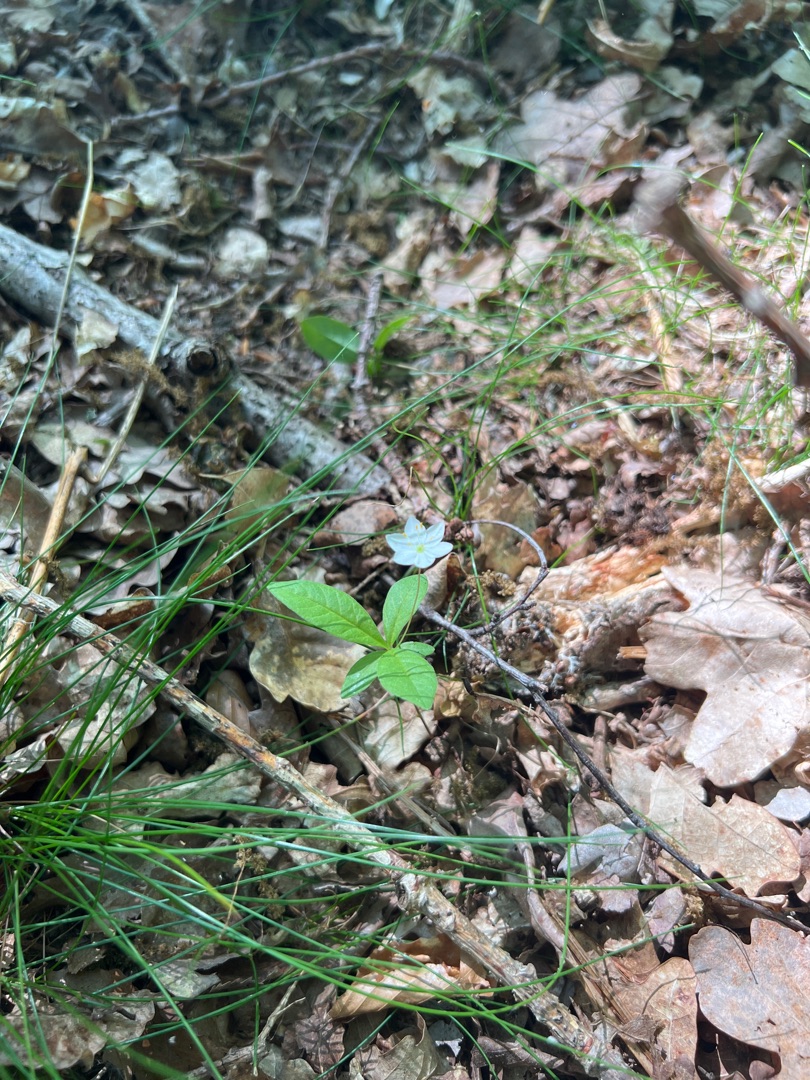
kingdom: Plantae
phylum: Tracheophyta
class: Magnoliopsida
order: Ericales
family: Primulaceae
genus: Lysimachia
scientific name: Lysimachia europaea
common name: Skovstjerne
